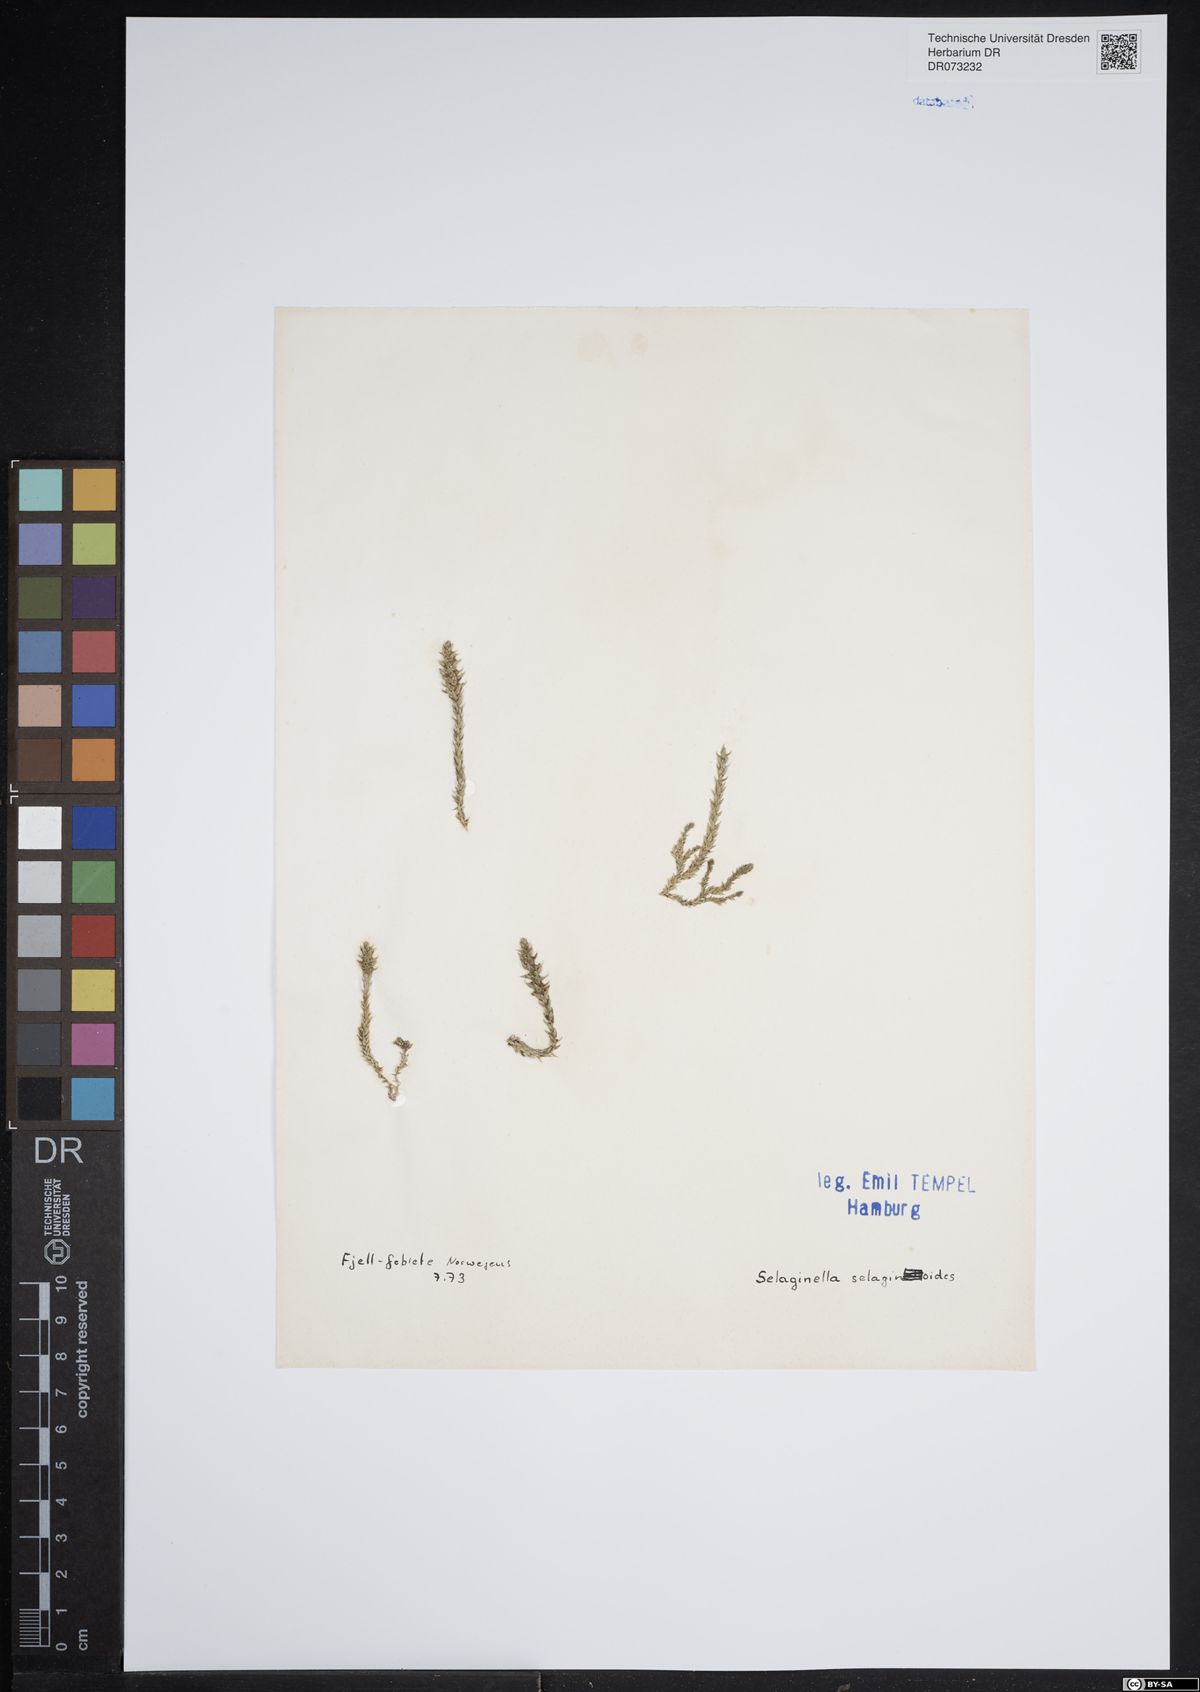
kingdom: Plantae
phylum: Tracheophyta
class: Lycopodiopsida
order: Selaginellales
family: Selaginellaceae
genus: Selaginella
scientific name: Selaginella selaginoides
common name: Prickly mountain-moss
